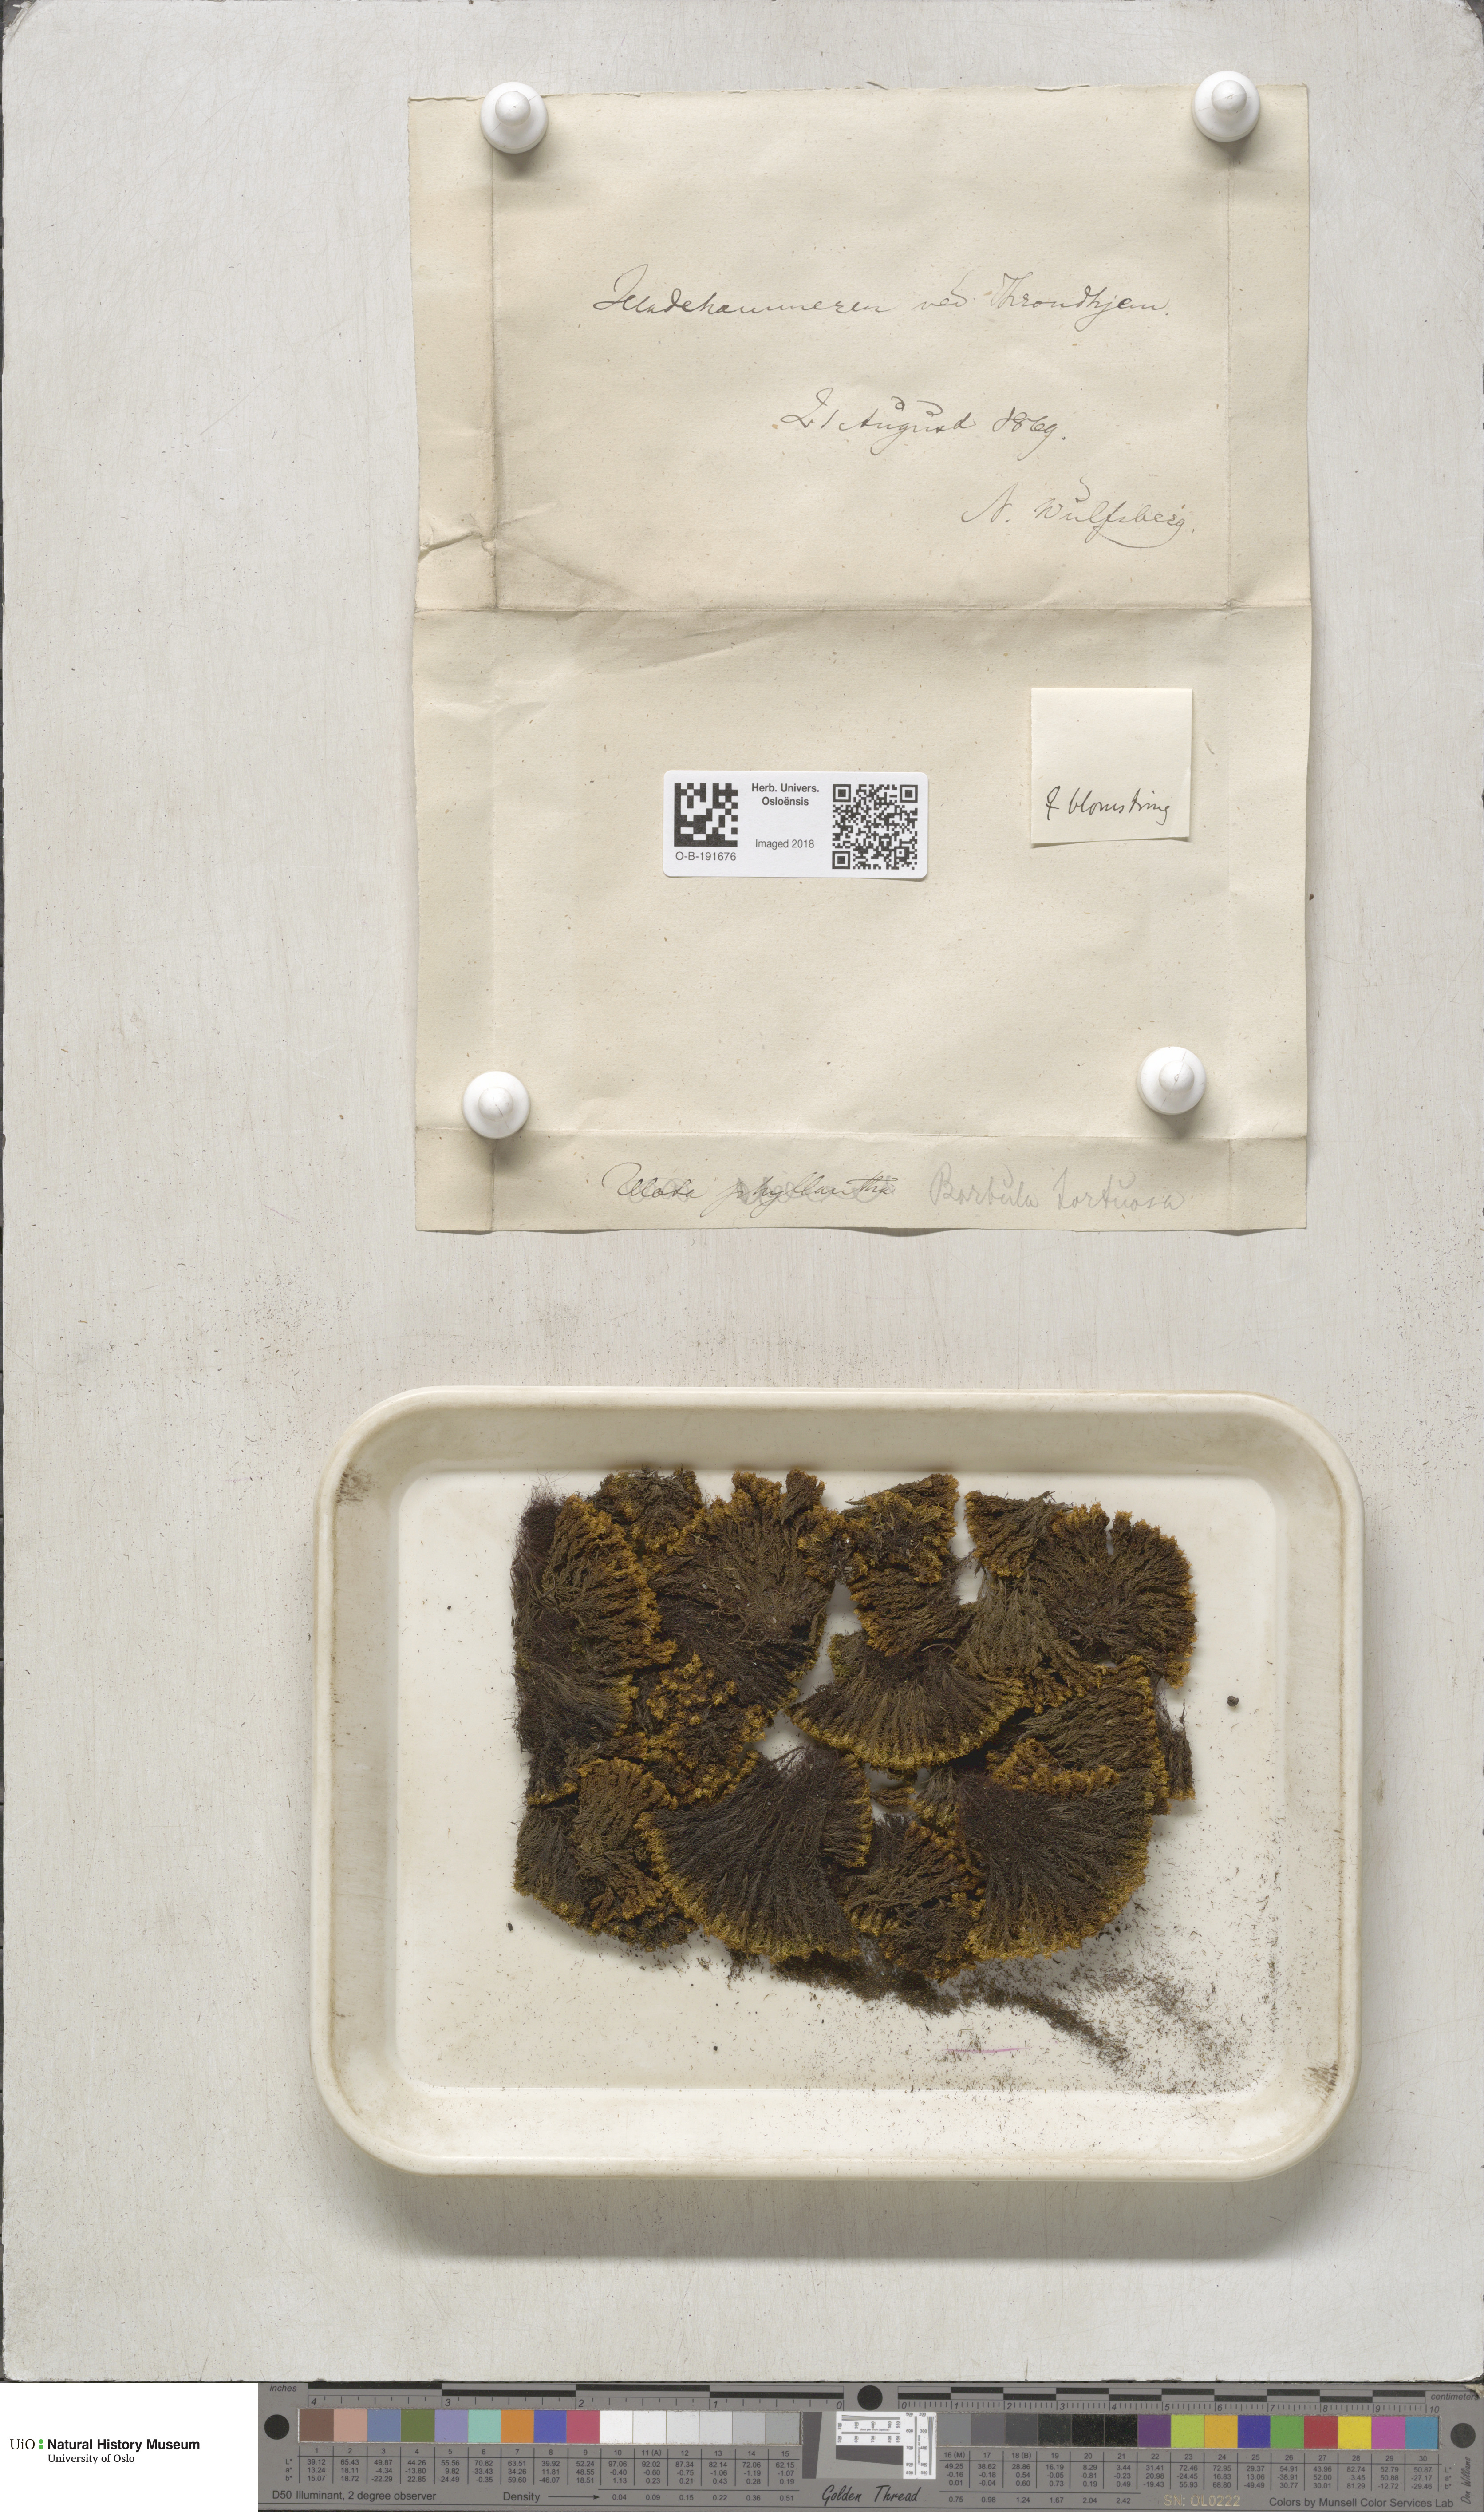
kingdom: Plantae
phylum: Bryophyta
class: Bryopsida
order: Pottiales
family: Pottiaceae
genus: Tortella
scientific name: Tortella tortuosa
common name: Frizzled crisp moss
